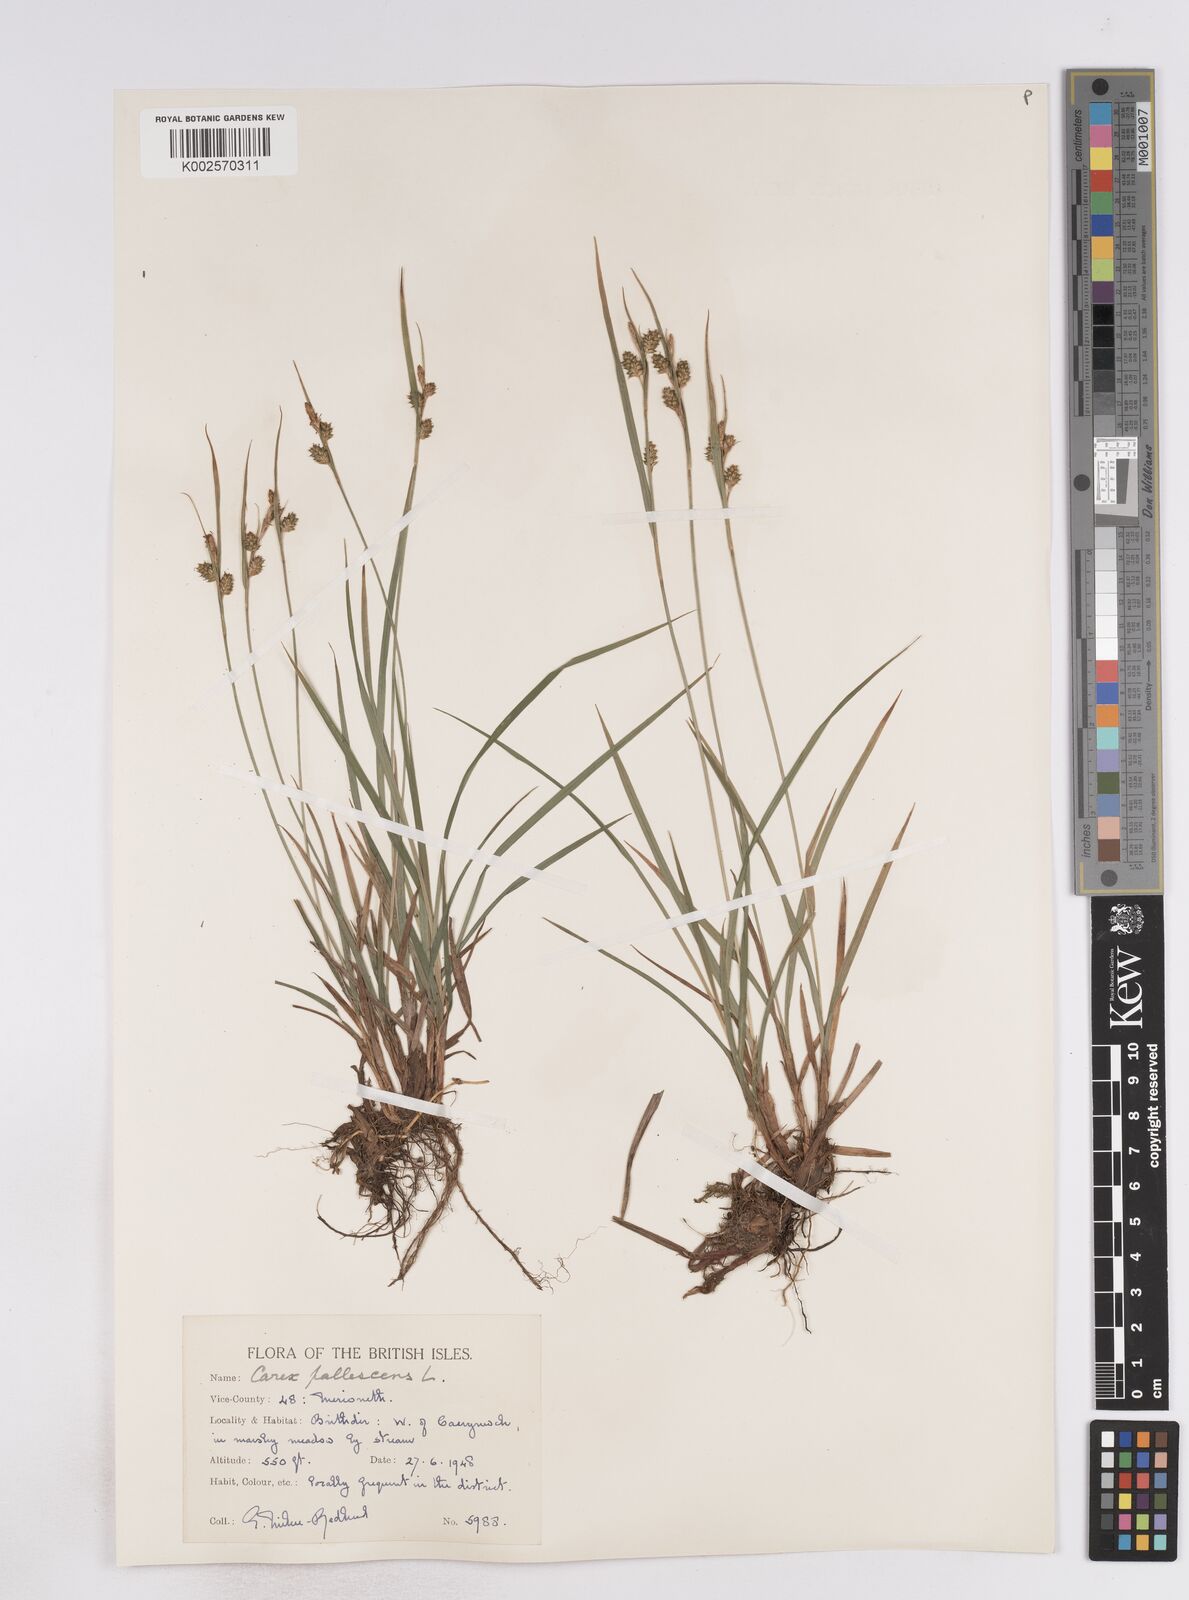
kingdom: Plantae
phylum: Tracheophyta
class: Liliopsida
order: Poales
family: Cyperaceae
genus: Carex
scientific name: Carex pallescens
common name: Pale sedge
